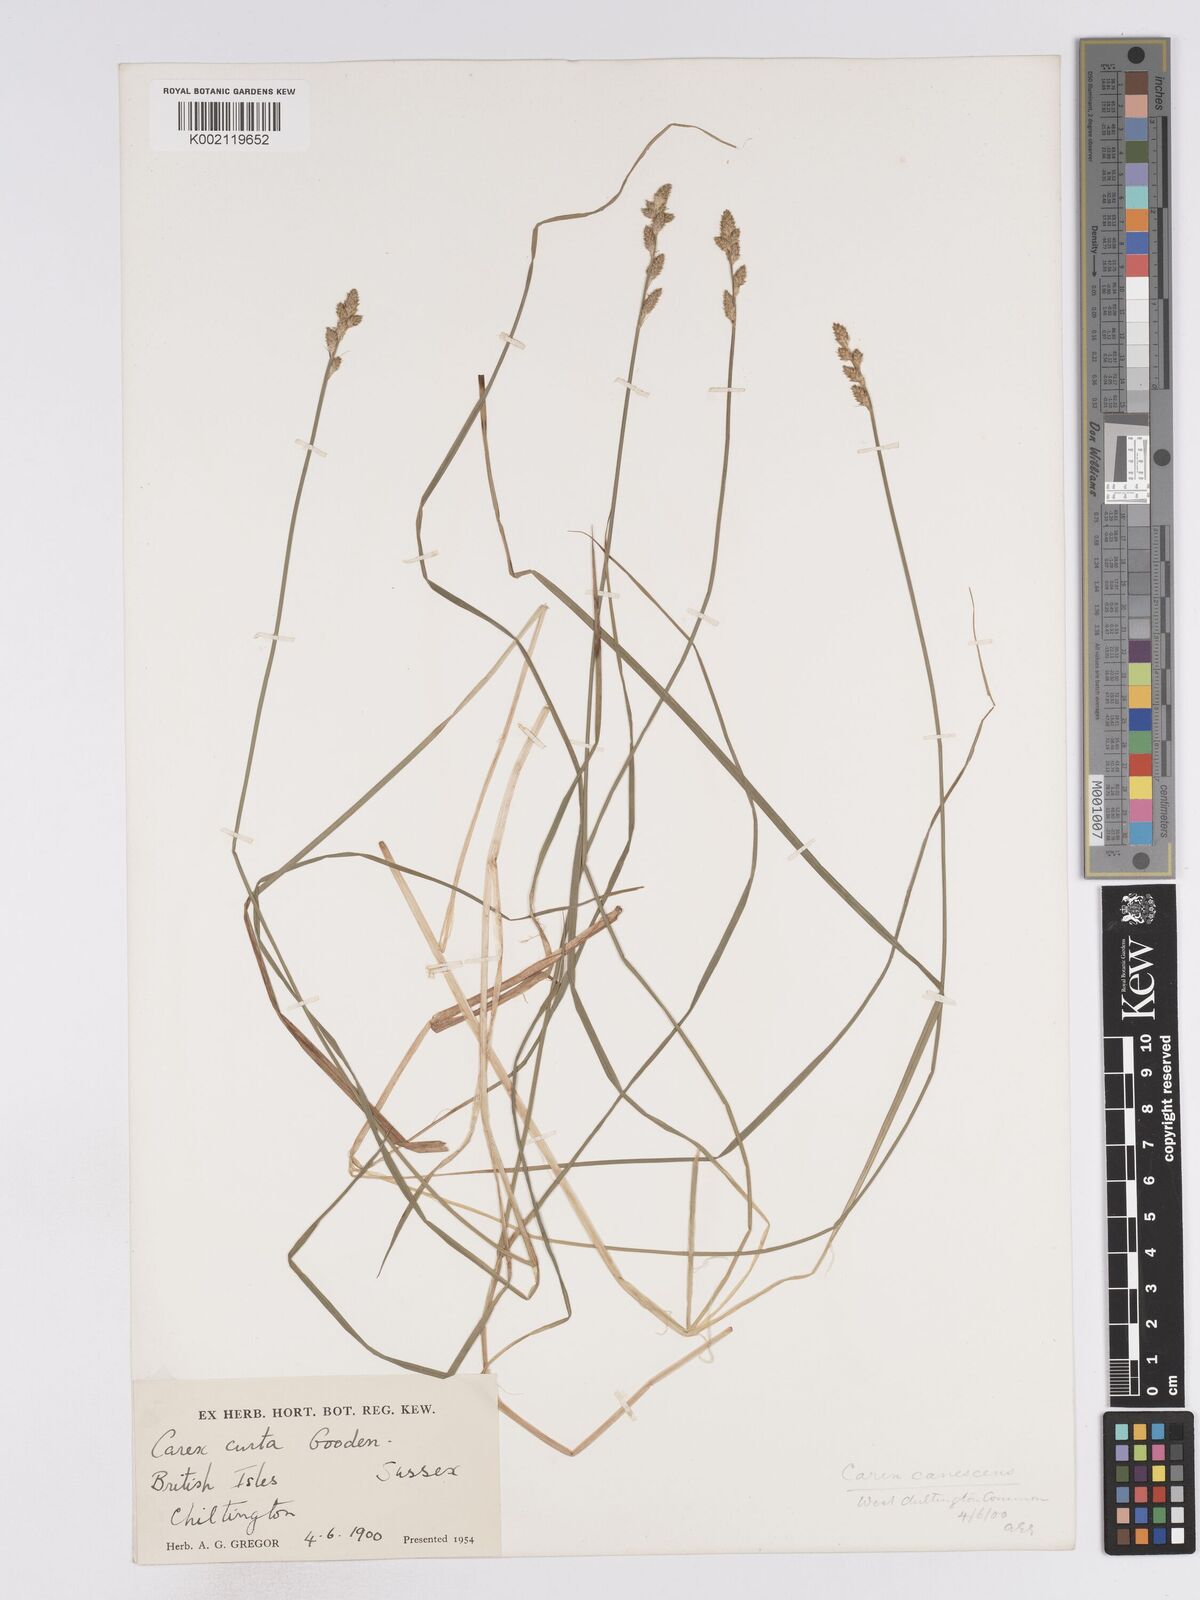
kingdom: Plantae
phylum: Tracheophyta
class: Liliopsida
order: Poales
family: Cyperaceae
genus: Carex
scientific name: Carex curta
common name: White sedge
